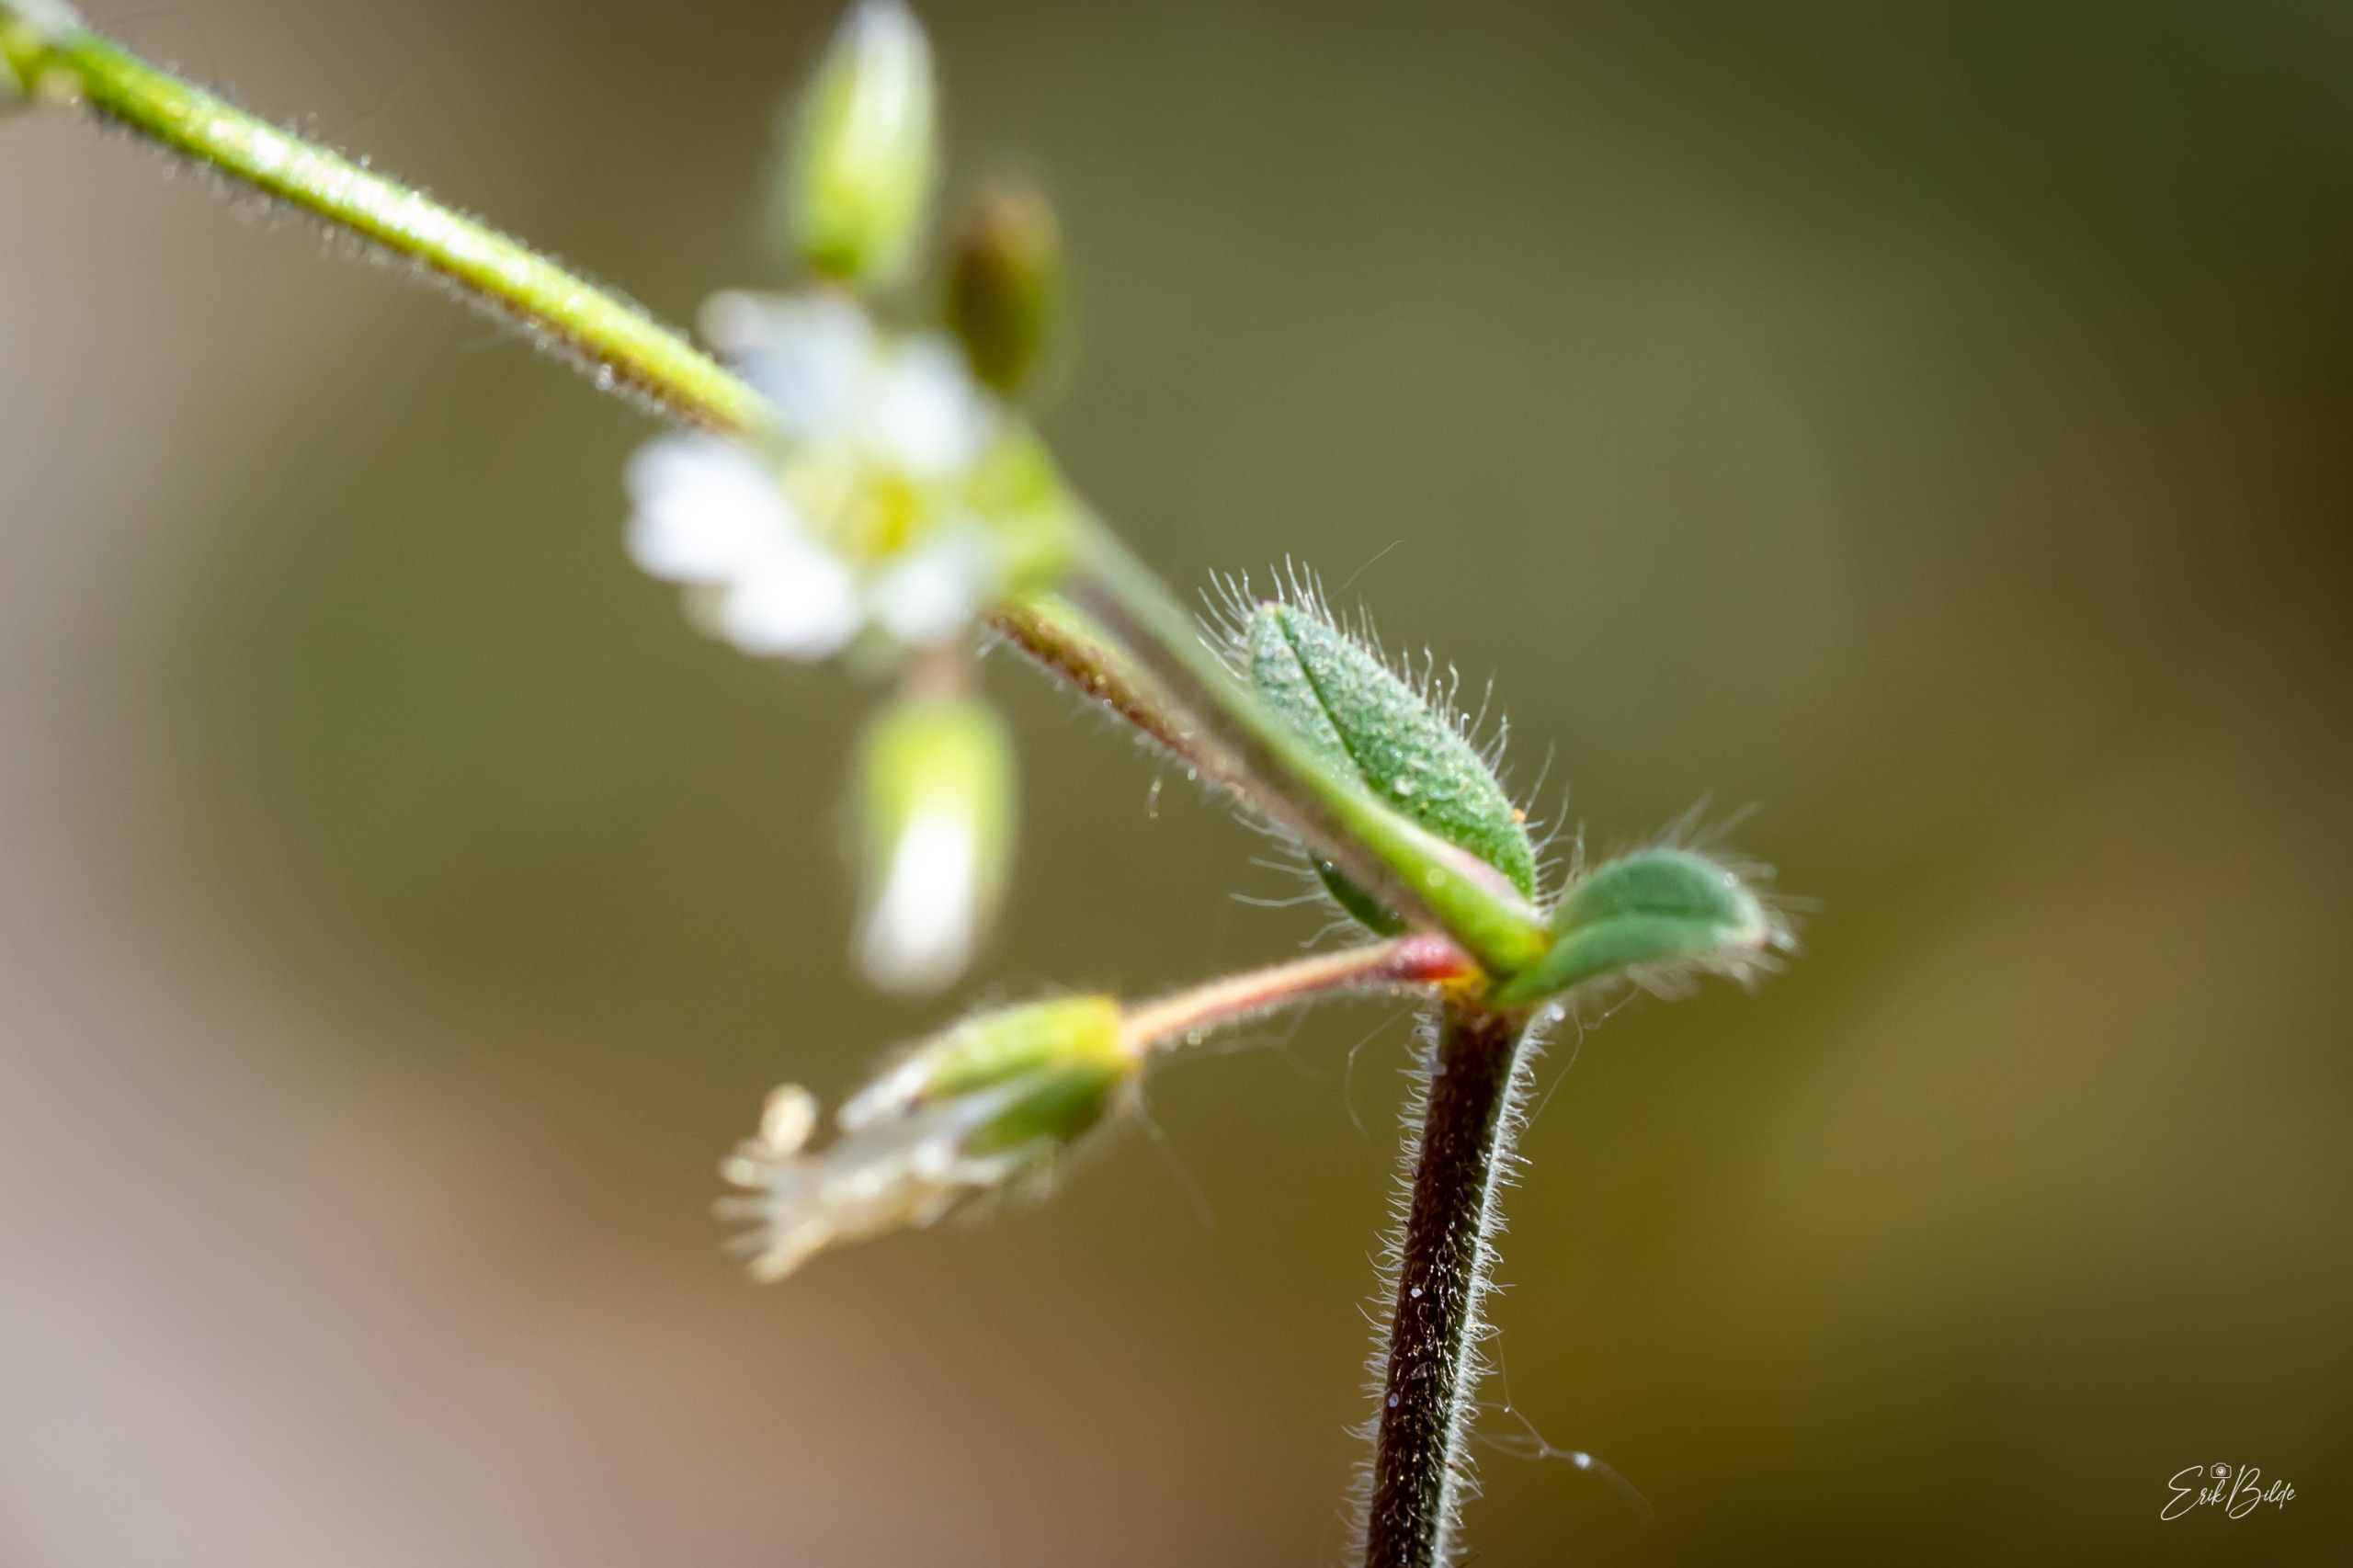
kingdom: Plantae
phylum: Tracheophyta
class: Magnoliopsida
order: Caryophyllales
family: Caryophyllaceae
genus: Cerastium
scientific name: Cerastium fontanum
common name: Almindelig hønsetarm
